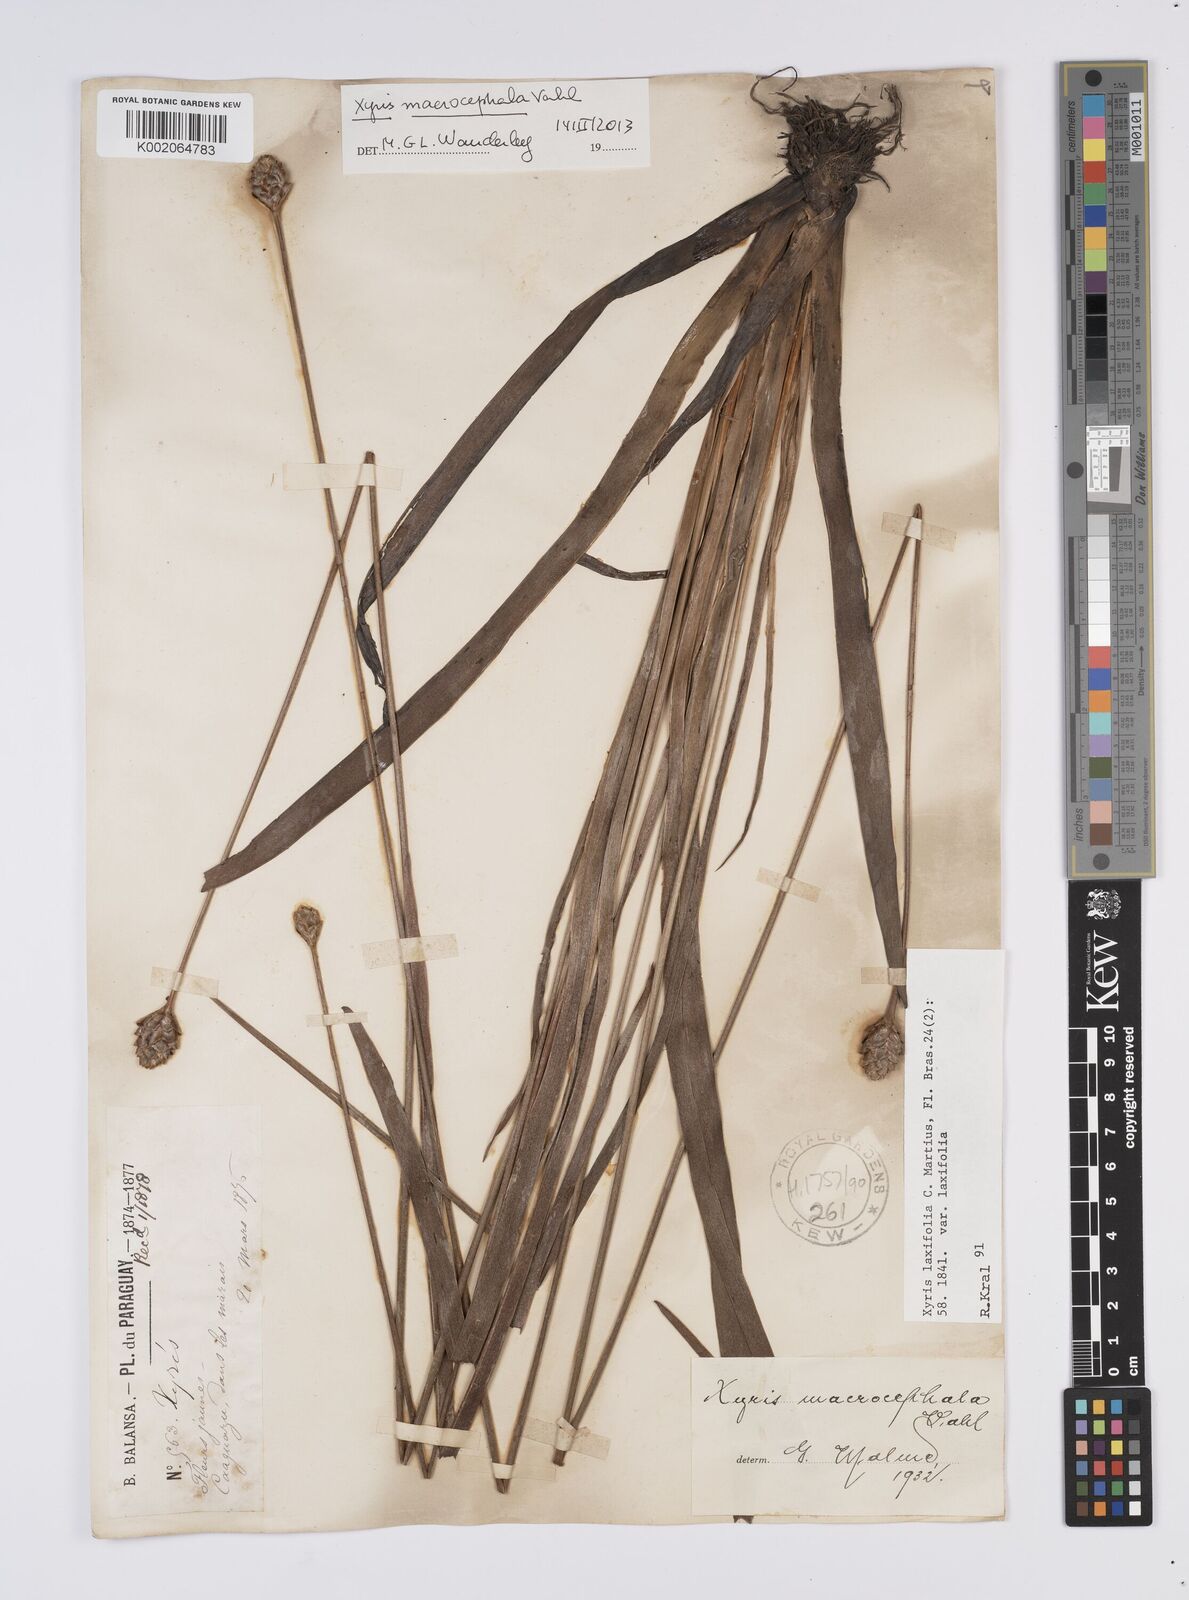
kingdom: Plantae
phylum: Tracheophyta
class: Liliopsida
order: Poales
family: Xyridaceae
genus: Xyris
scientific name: Xyris laxifolia
